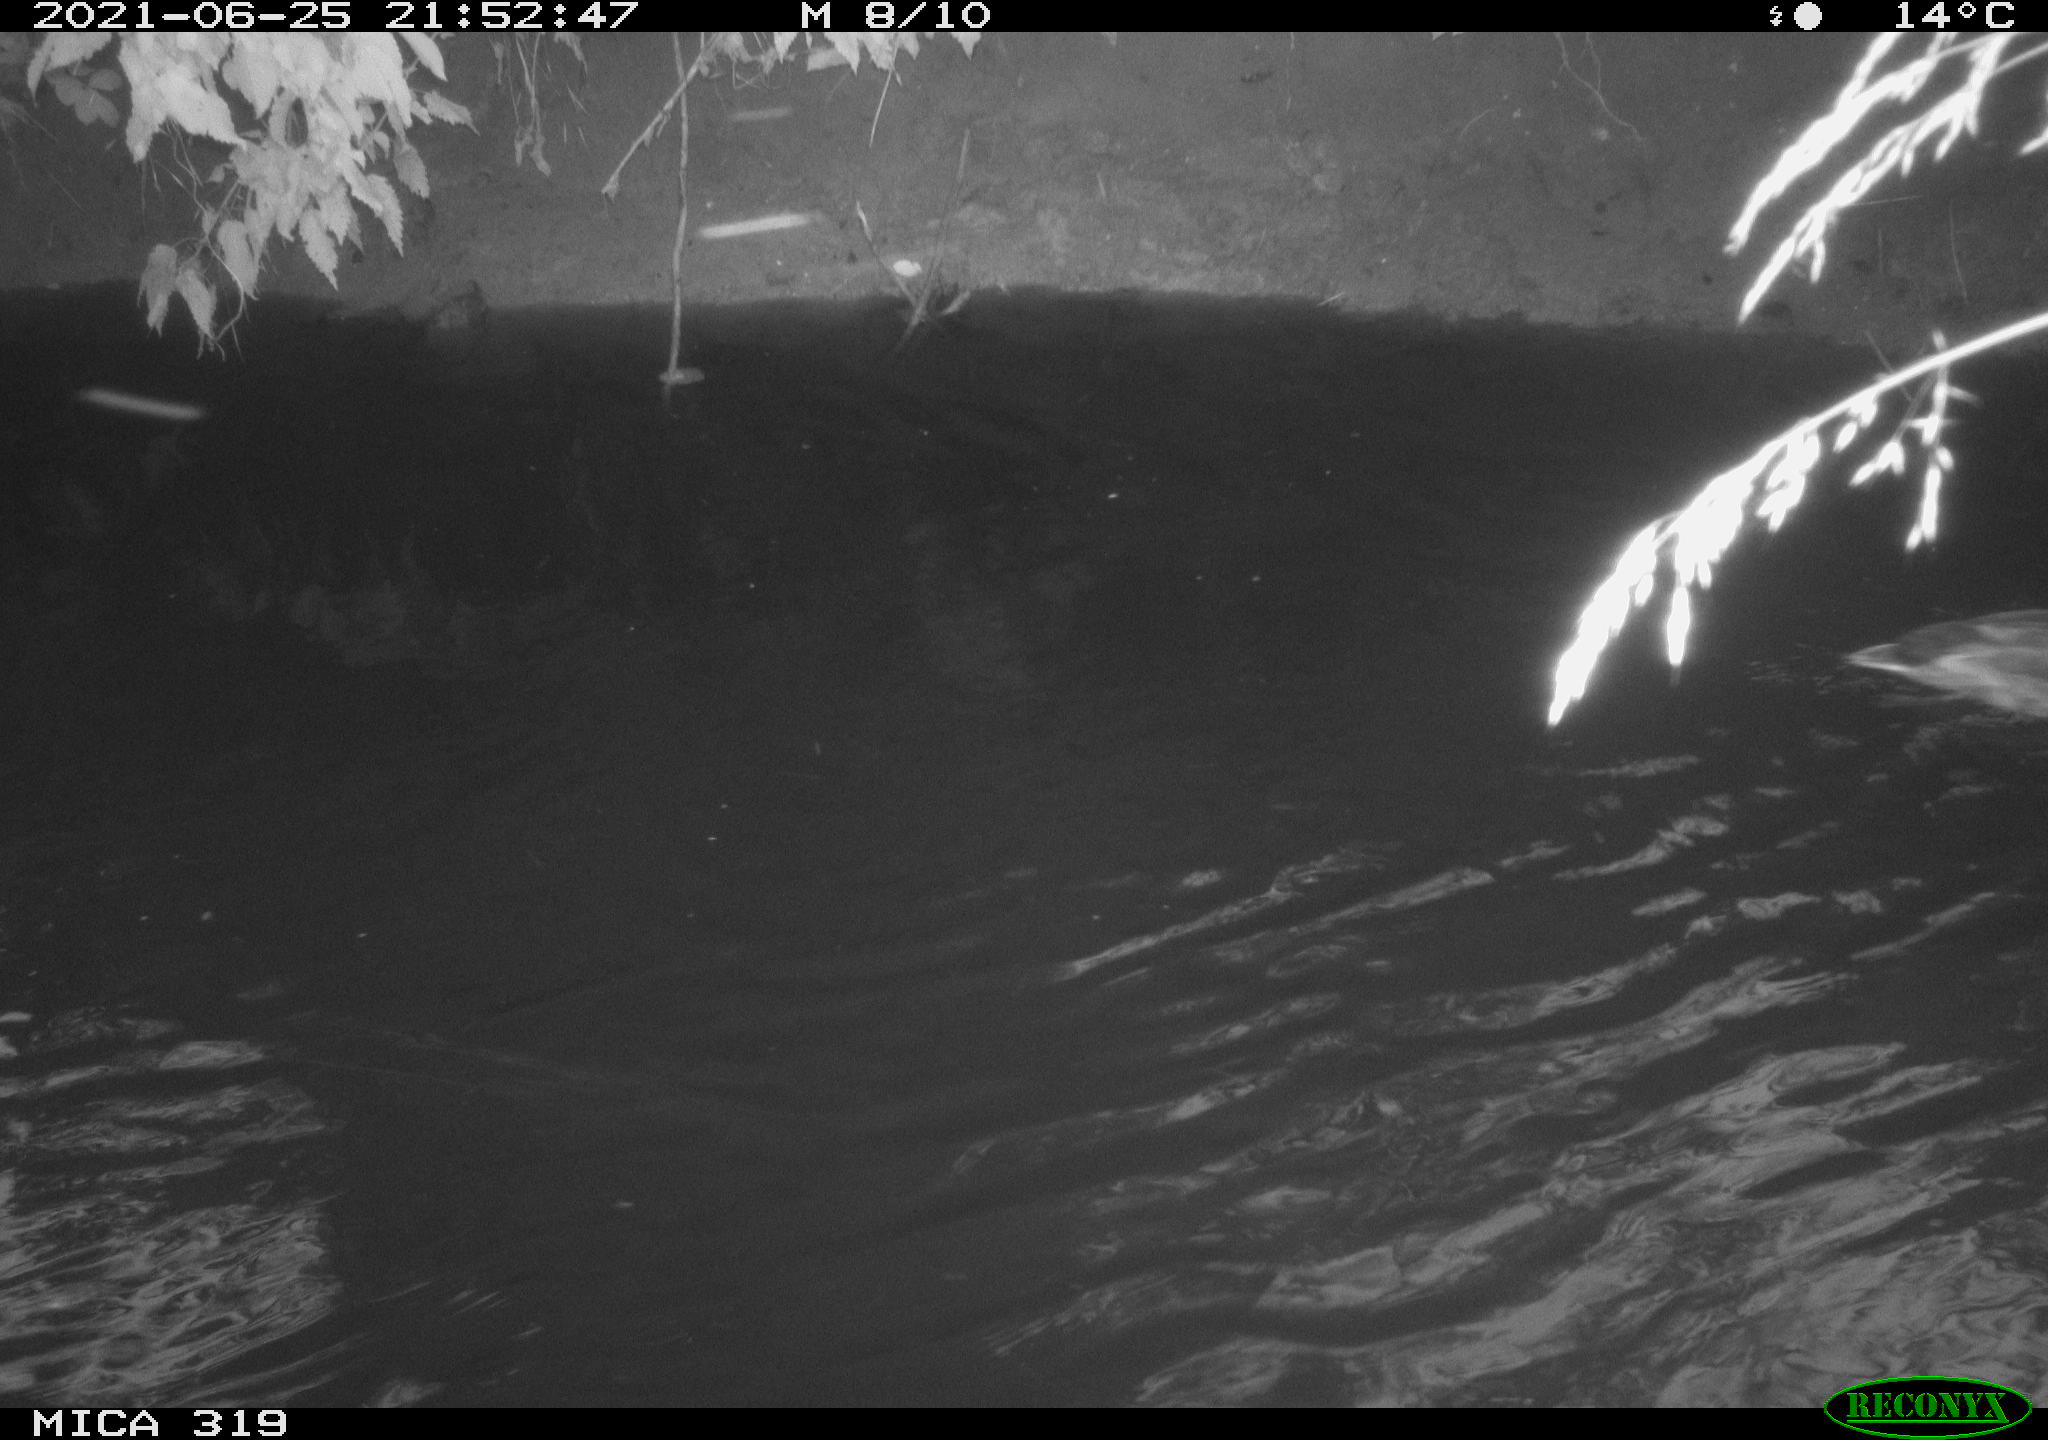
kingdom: Animalia
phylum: Chordata
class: Aves
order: Anseriformes
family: Anatidae
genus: Anas
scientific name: Anas platyrhynchos
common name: Mallard
